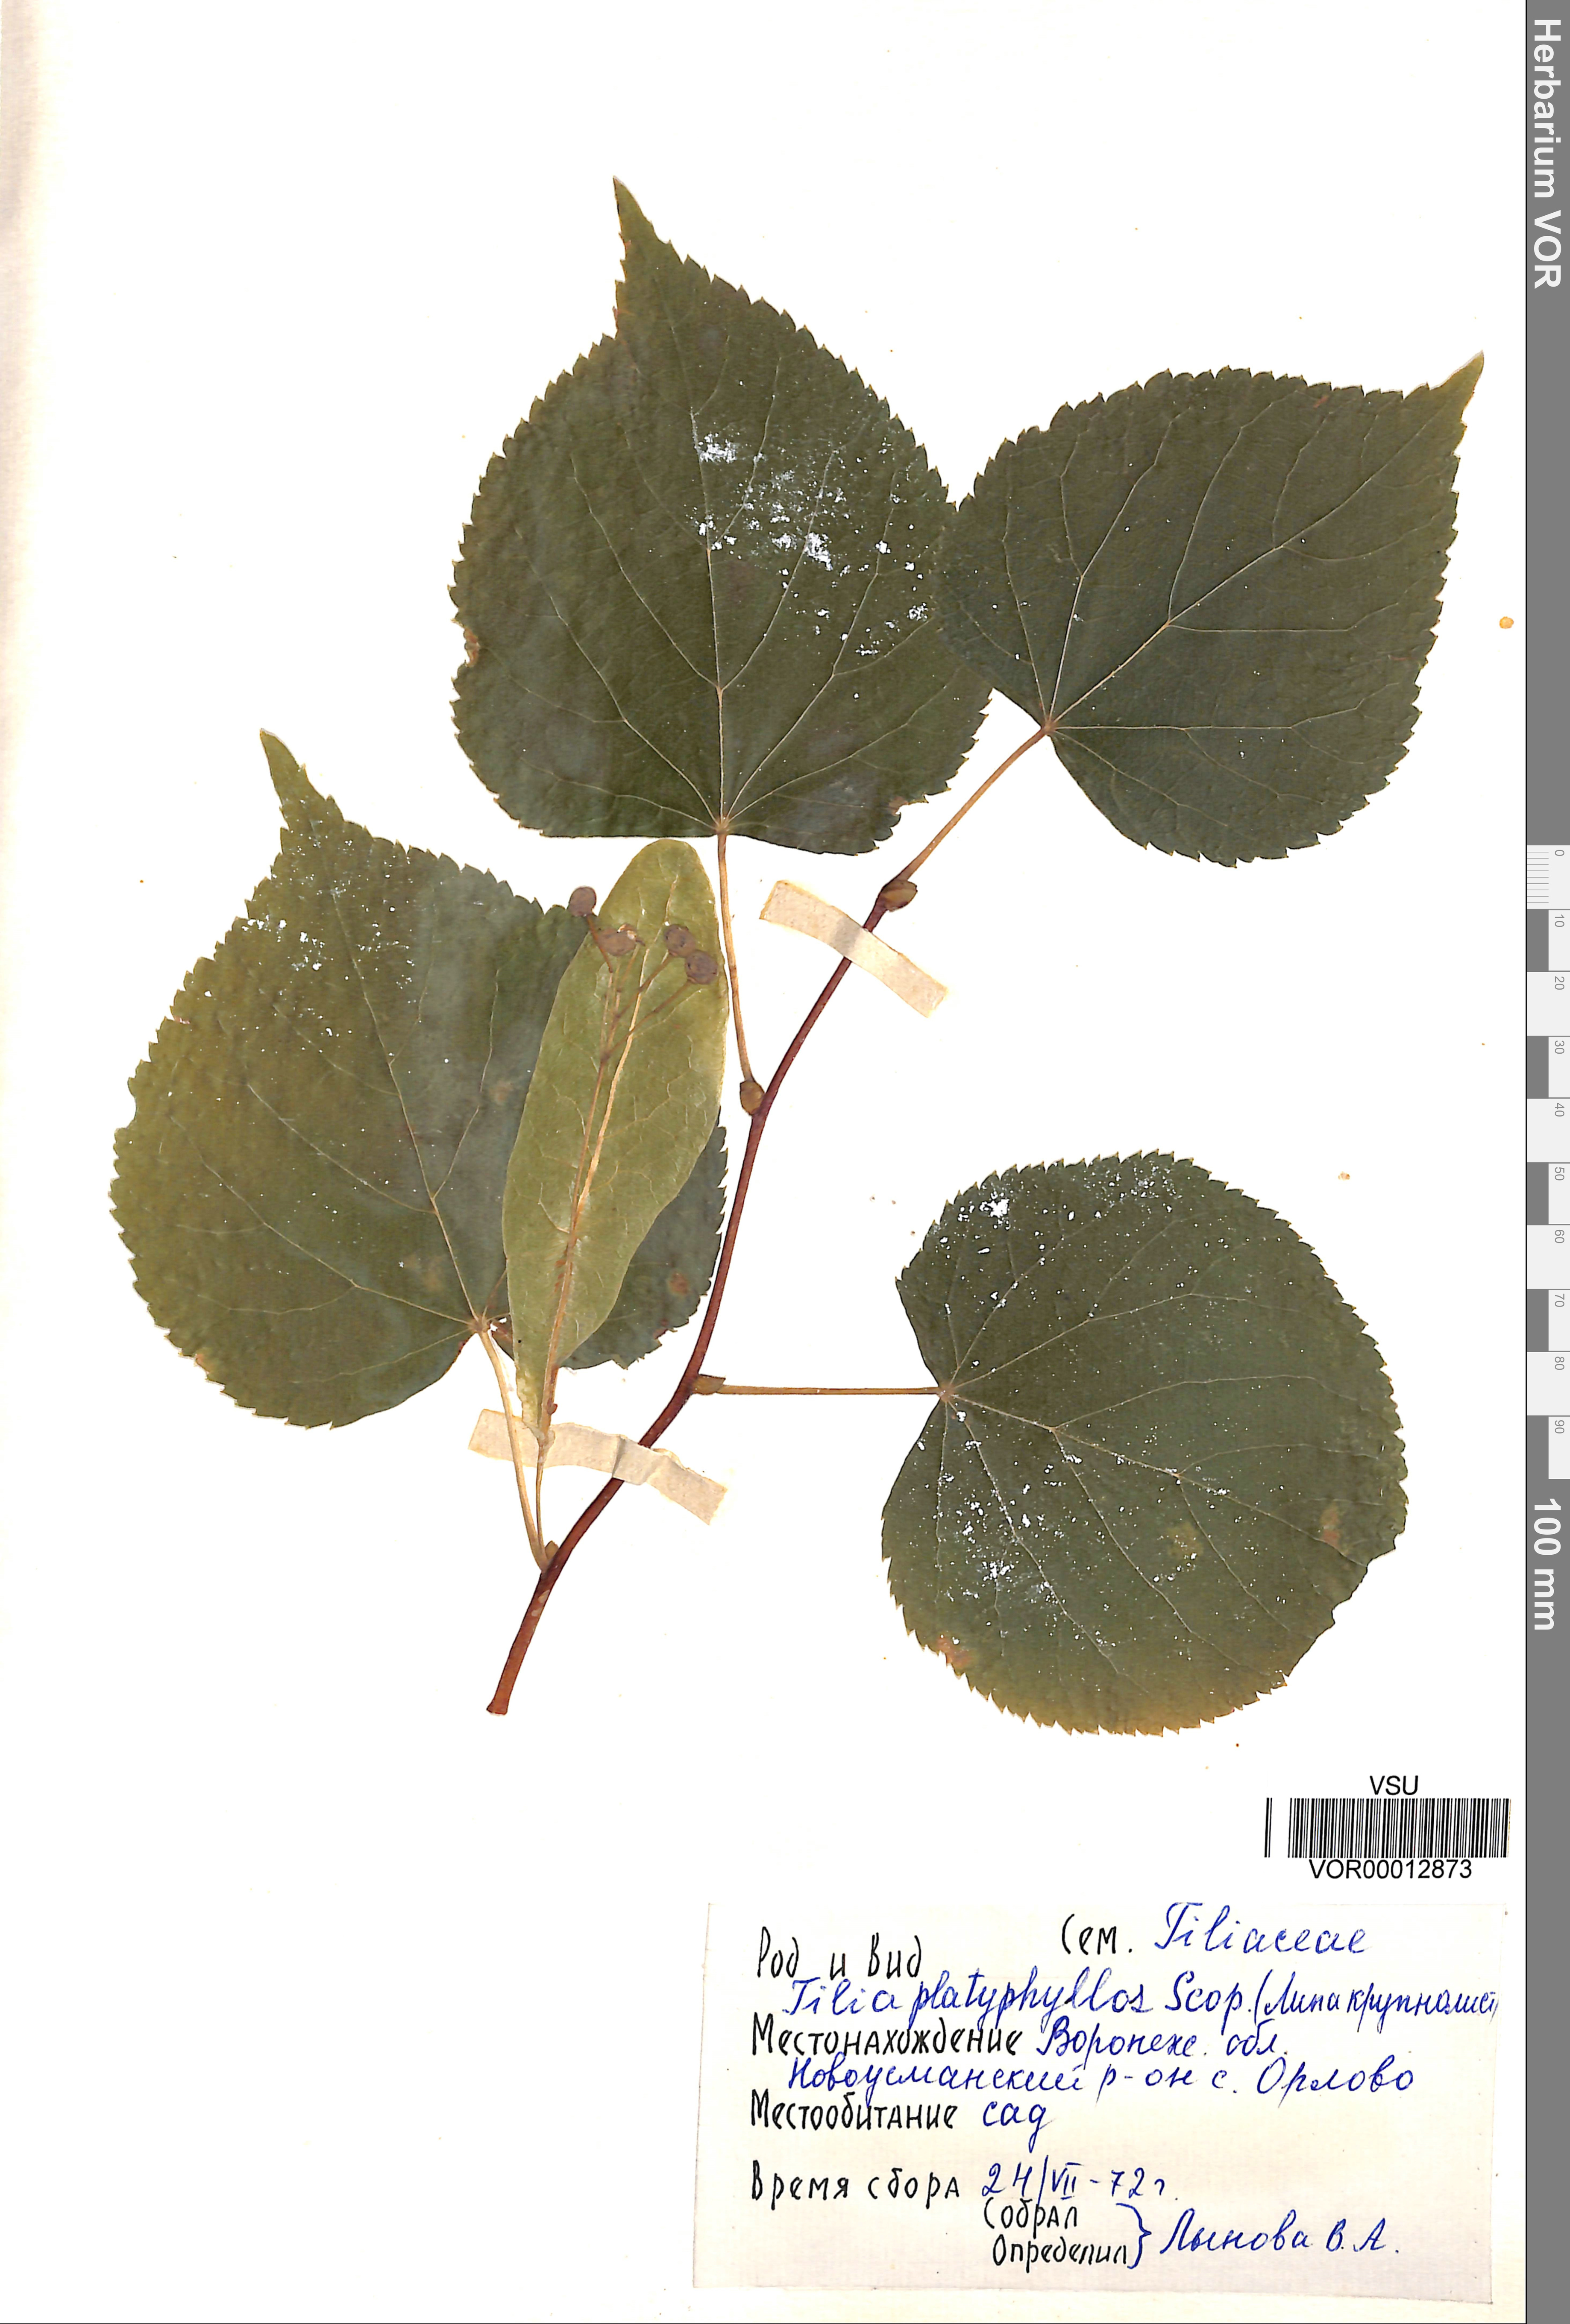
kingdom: Plantae
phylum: Tracheophyta
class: Magnoliopsida
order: Malvales
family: Malvaceae
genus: Tilia
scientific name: Tilia platyphyllos
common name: Large-leaved lime
